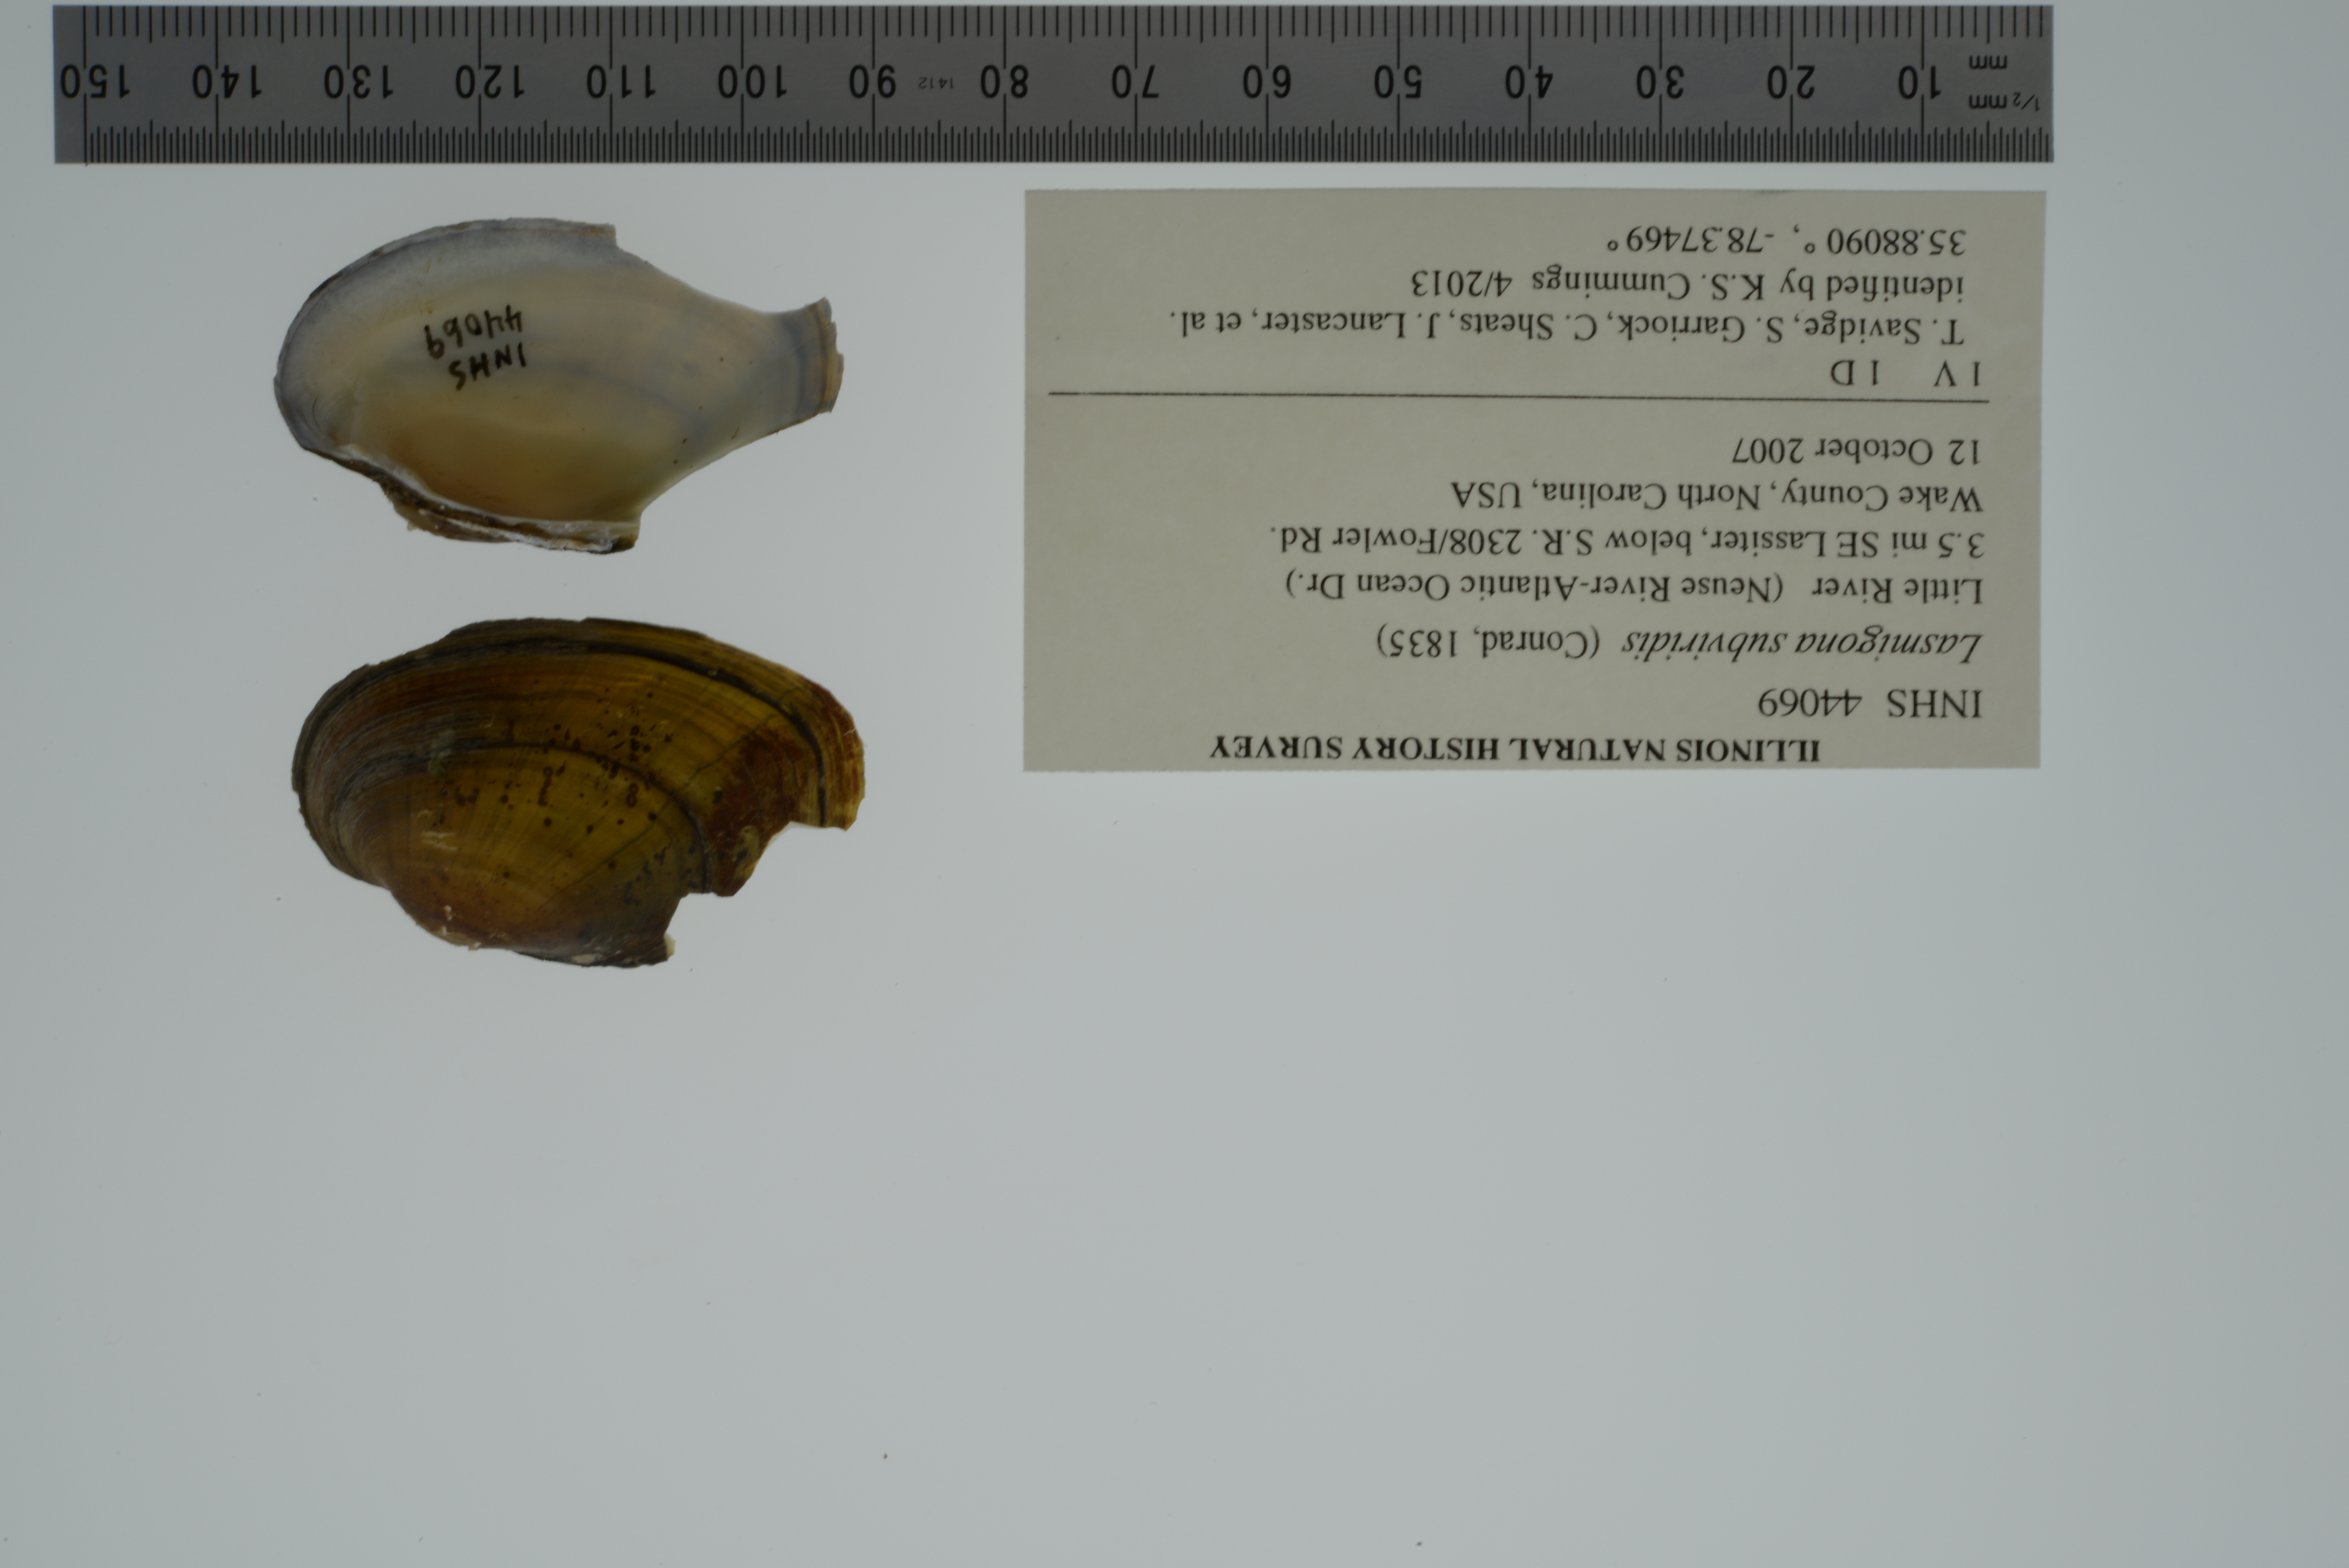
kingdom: Animalia
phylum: Mollusca
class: Bivalvia
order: Unionida
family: Unionidae
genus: Lasmigona
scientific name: Lasmigona subviridis
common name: Green floater
